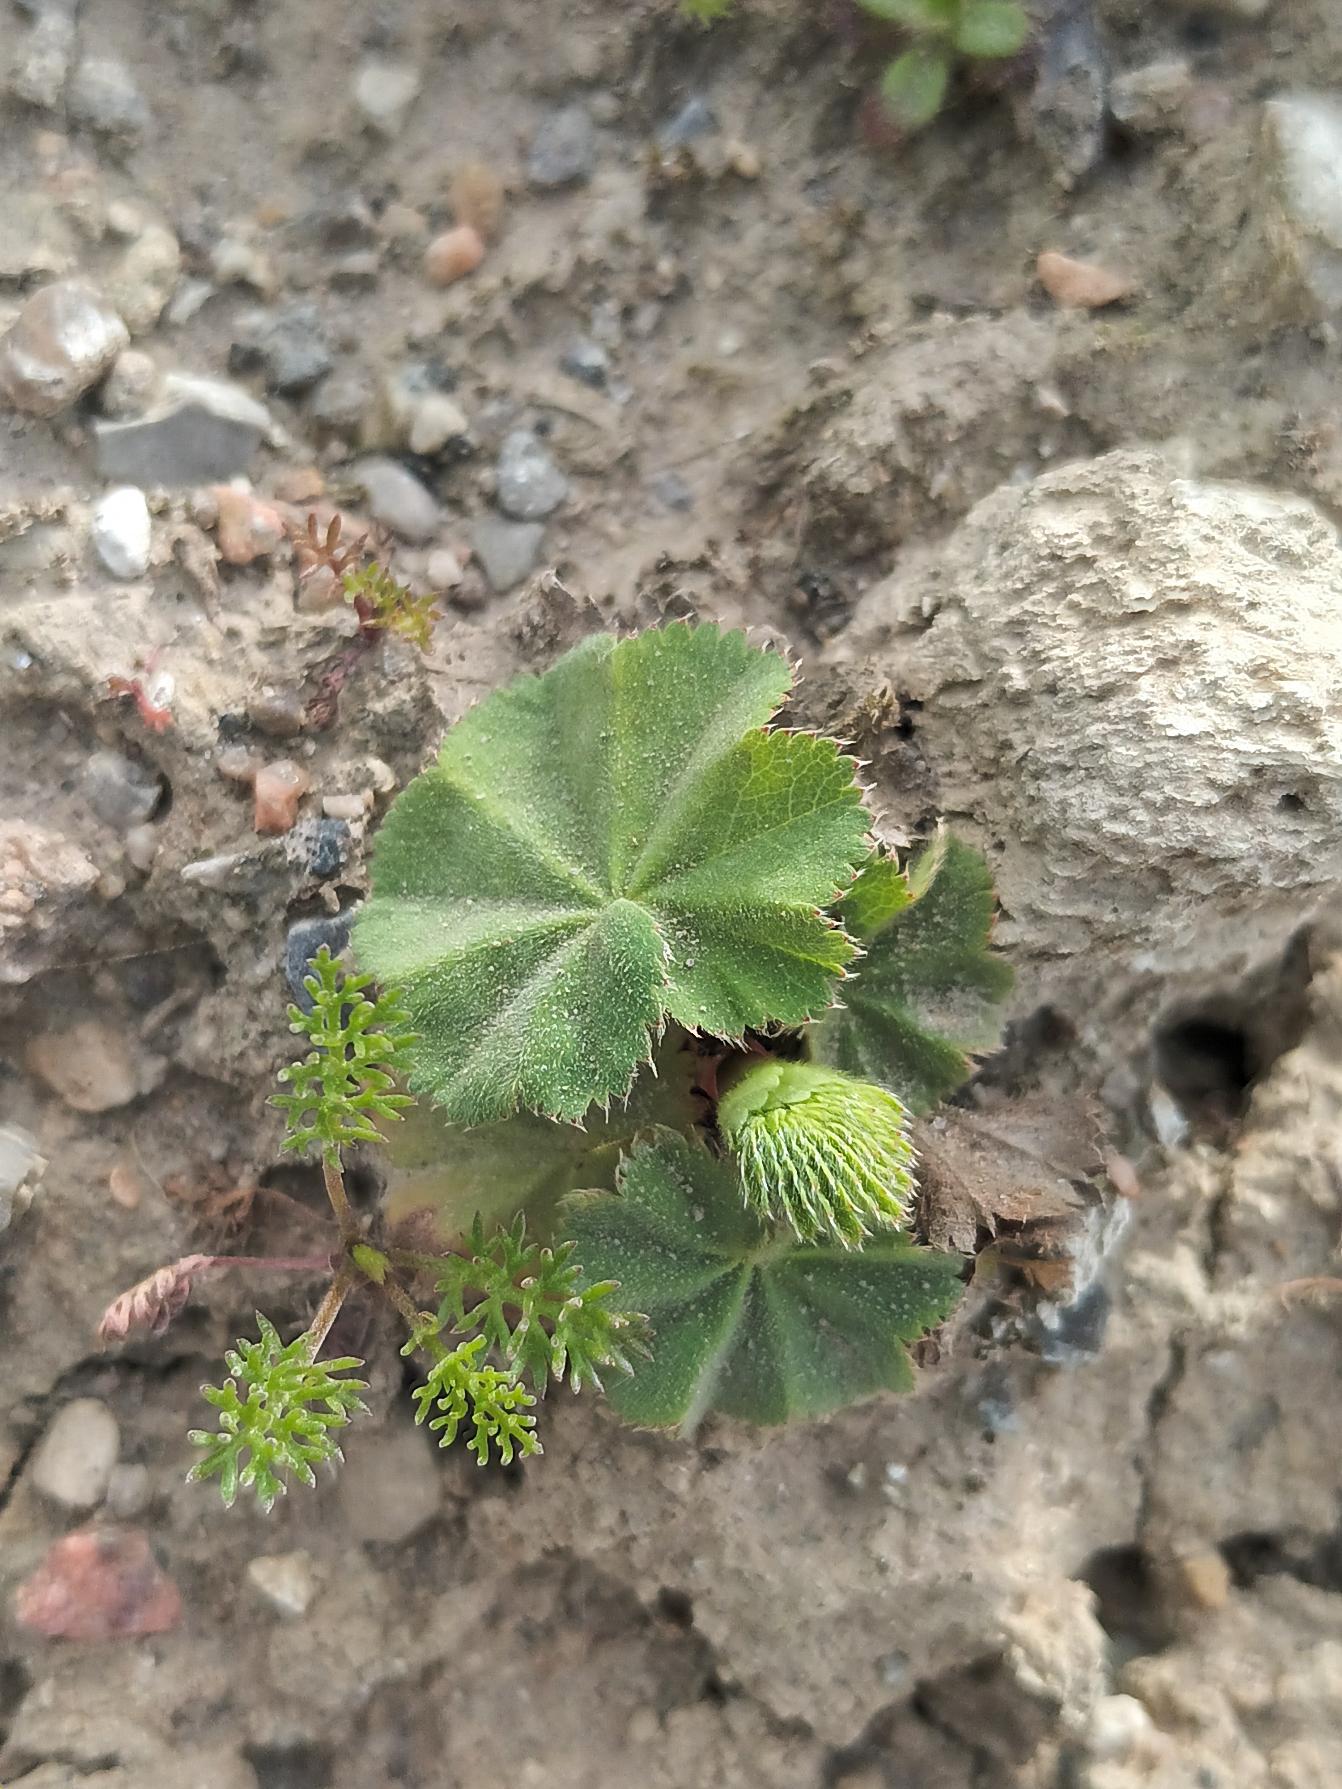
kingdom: Plantae
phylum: Tracheophyta
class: Magnoliopsida
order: Rosales
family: Rosaceae
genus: Alchemilla
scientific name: Alchemilla mollis
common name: Lådden løvefod
